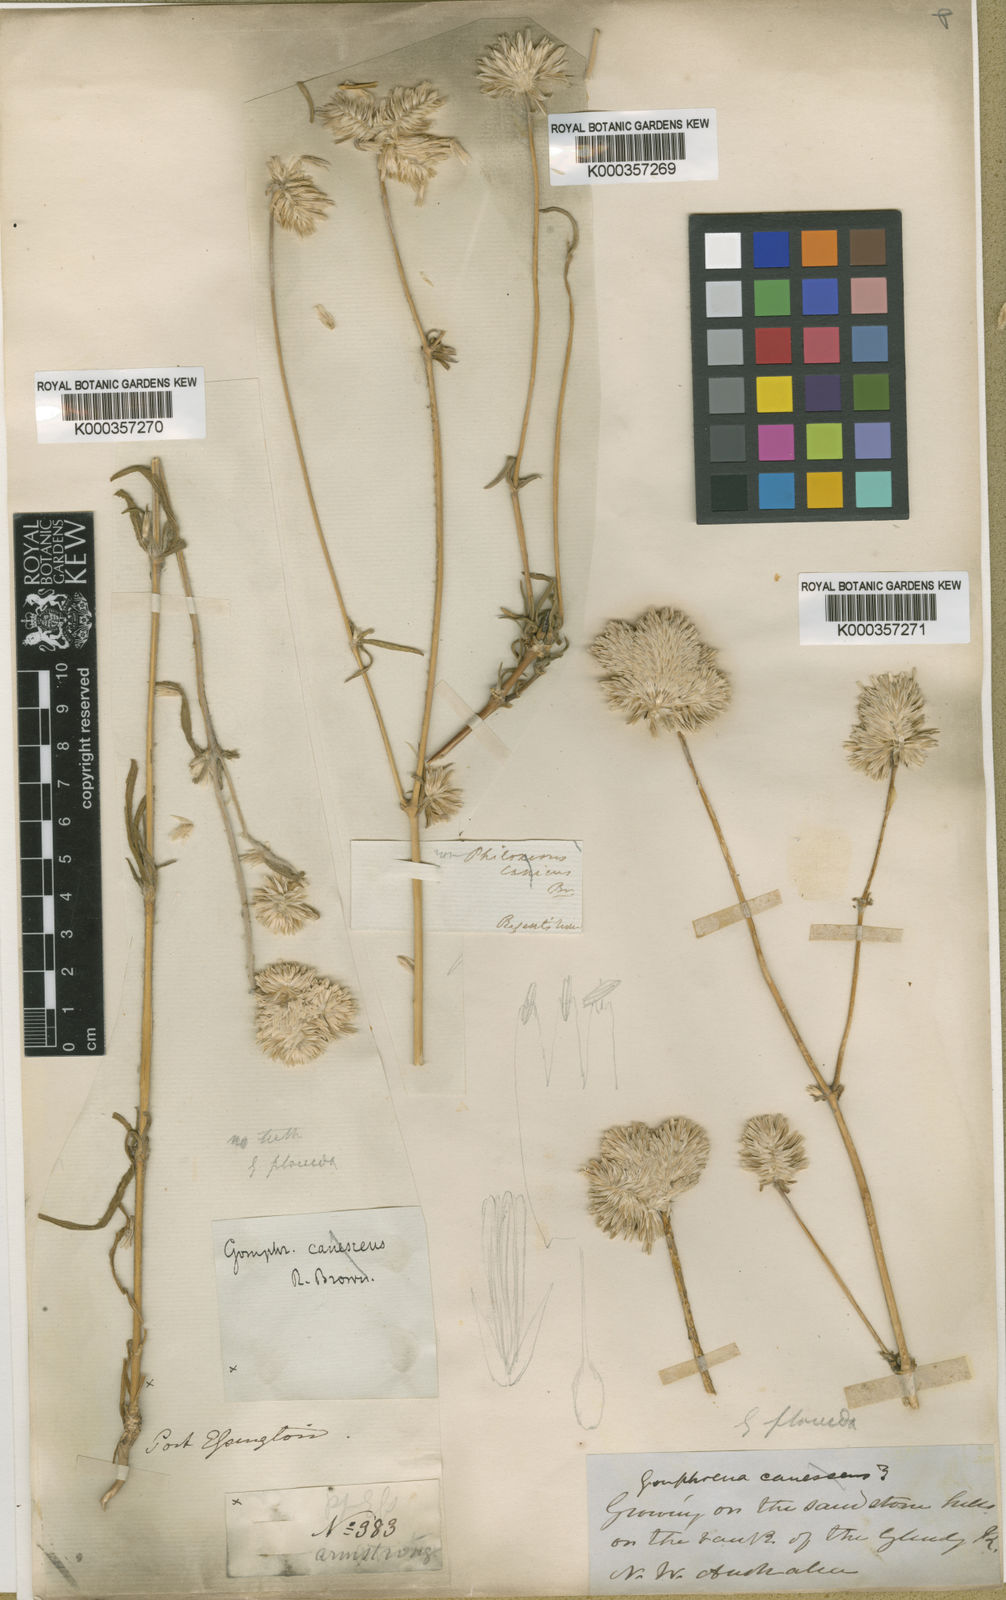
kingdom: Plantae
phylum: Tracheophyta
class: Magnoliopsida
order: Caryophyllales
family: Amaranthaceae
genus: Gomphrena
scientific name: Gomphrena flaccida
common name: Gomphrena-weed
